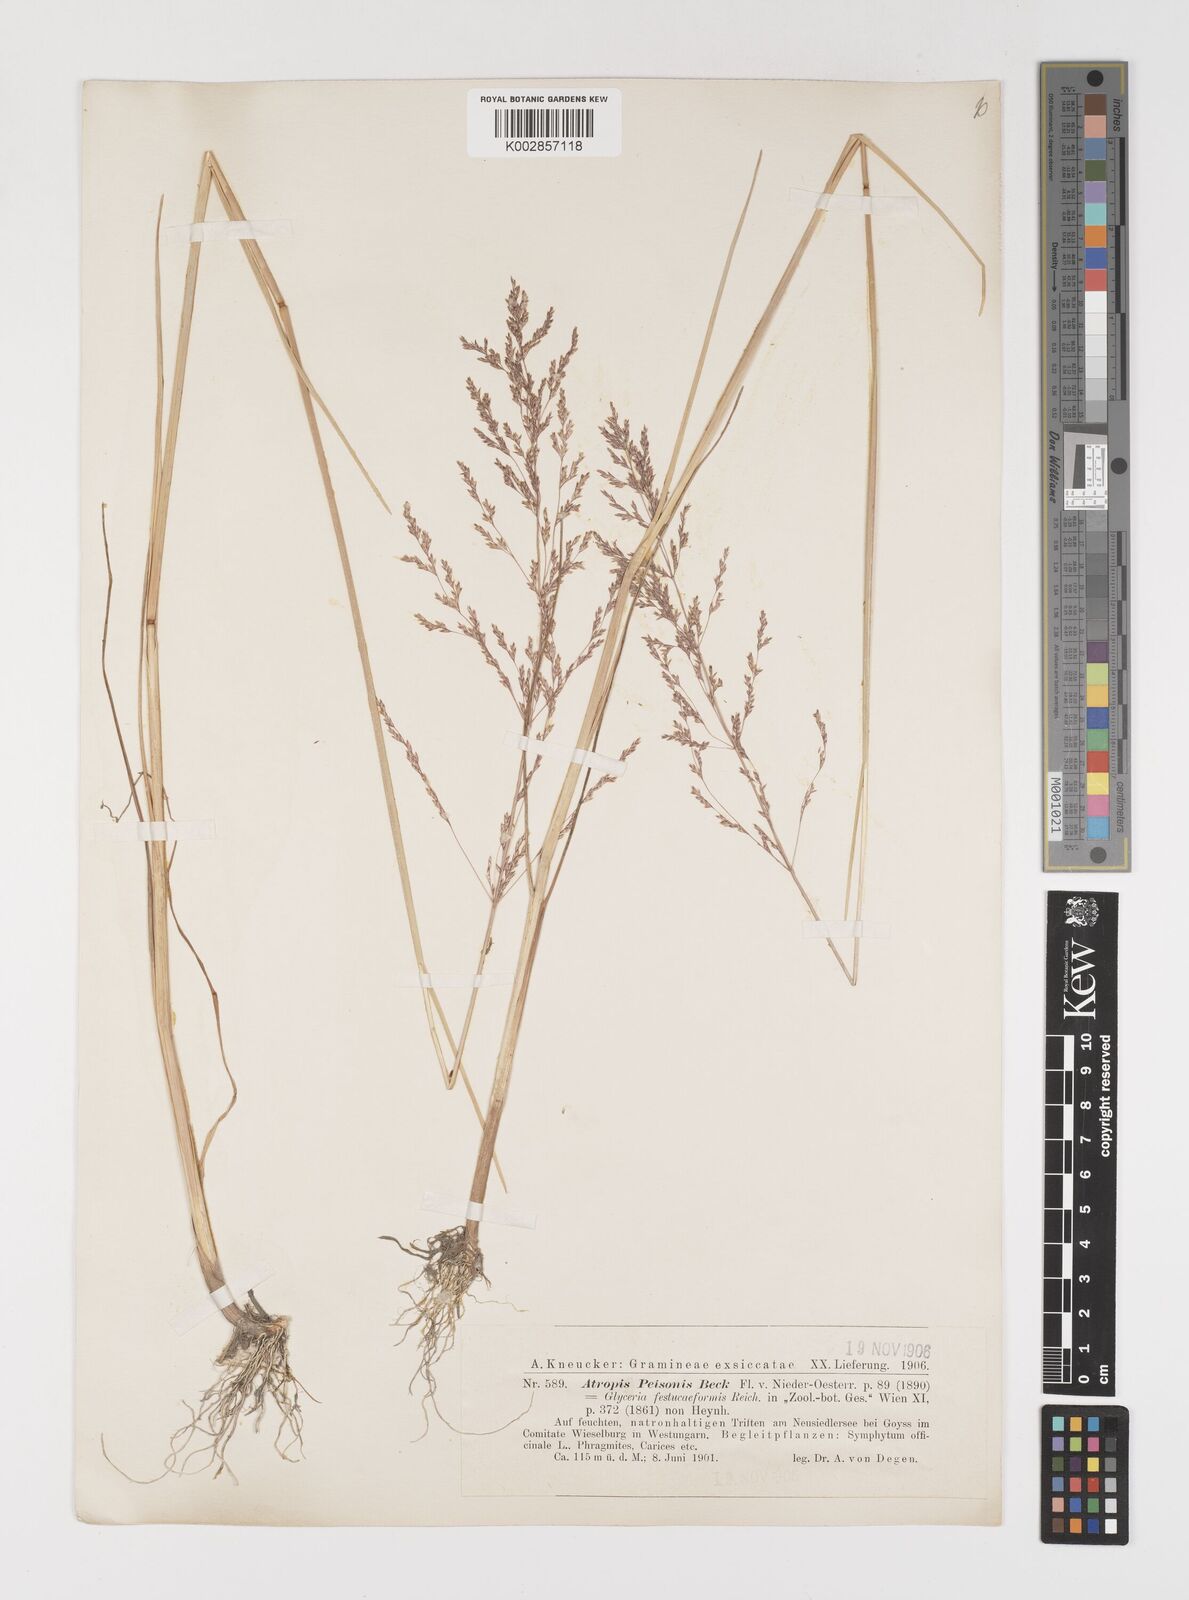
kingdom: Plantae
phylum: Tracheophyta
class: Liliopsida
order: Poales
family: Poaceae
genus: Puccinellia
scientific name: Puccinellia festuciformis
